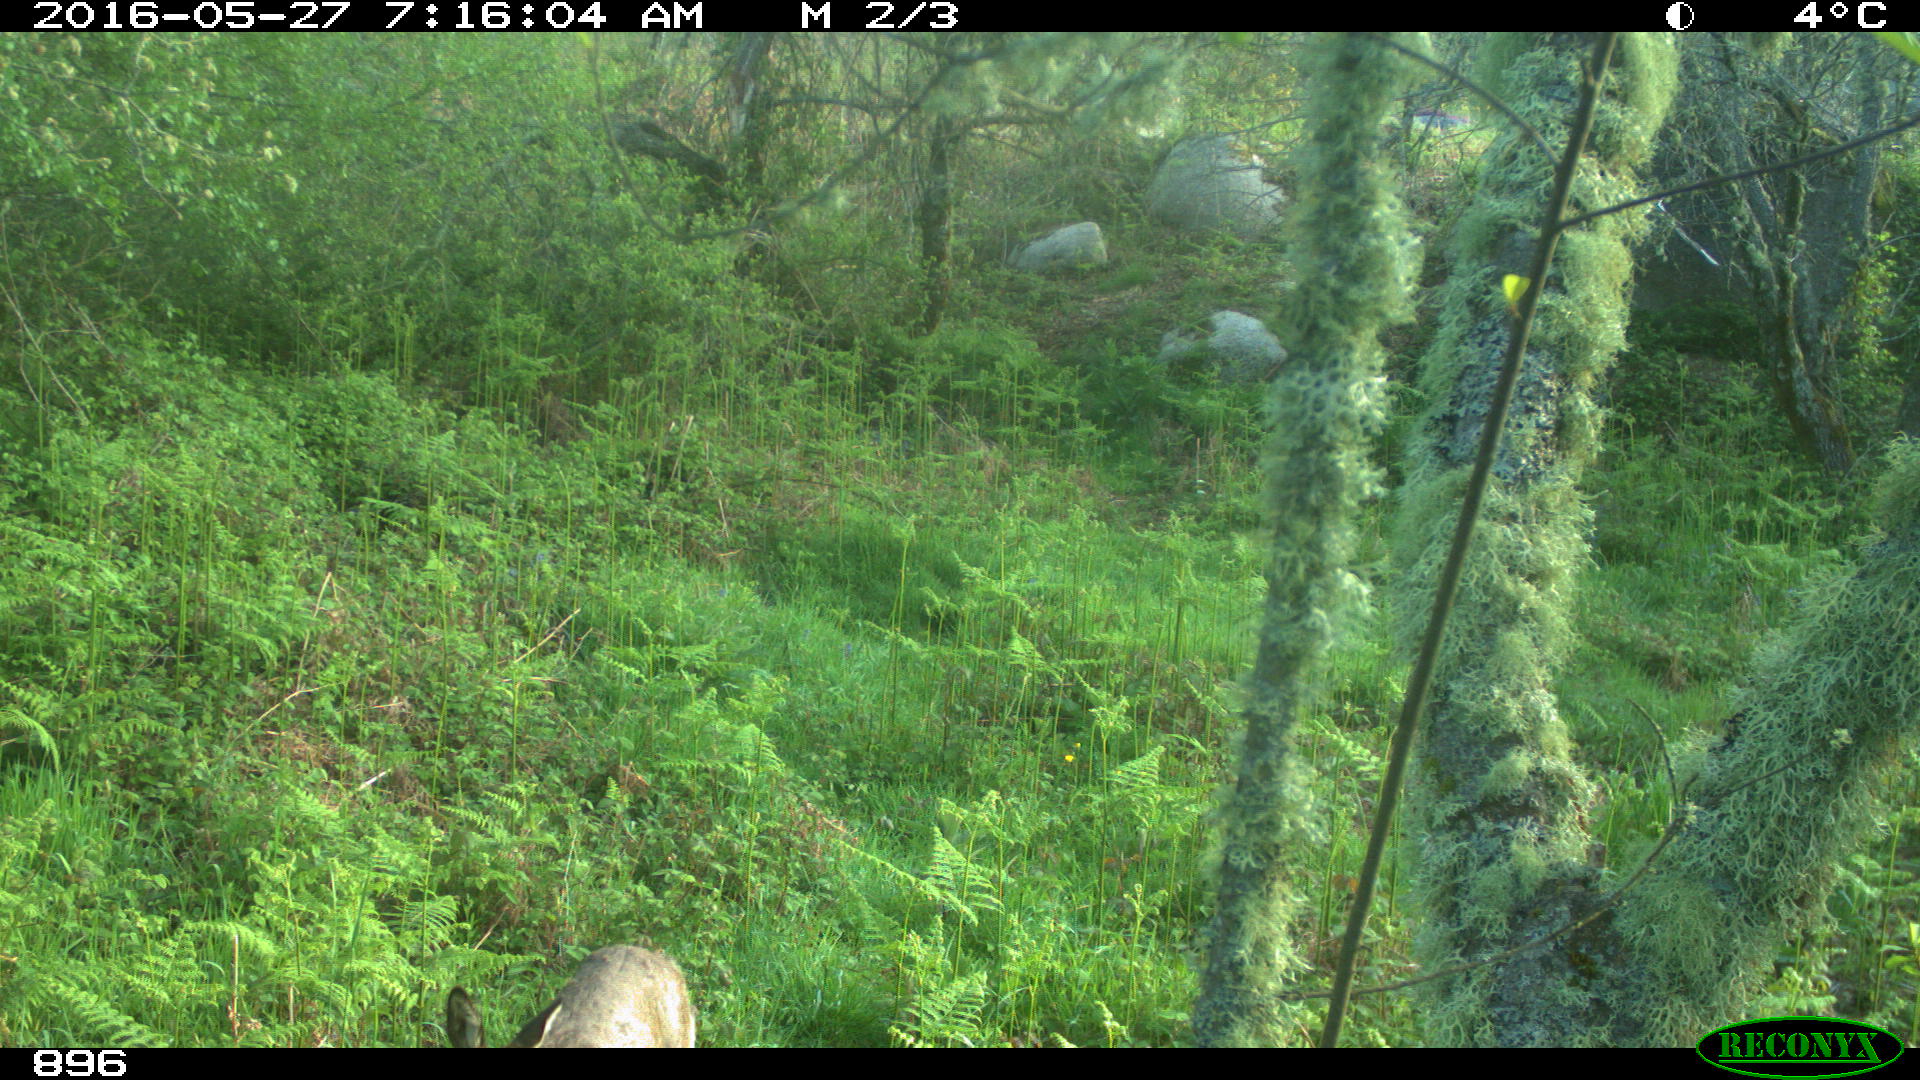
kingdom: Animalia
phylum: Chordata
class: Mammalia
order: Artiodactyla
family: Cervidae
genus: Capreolus
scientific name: Capreolus capreolus
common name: Western roe deer
